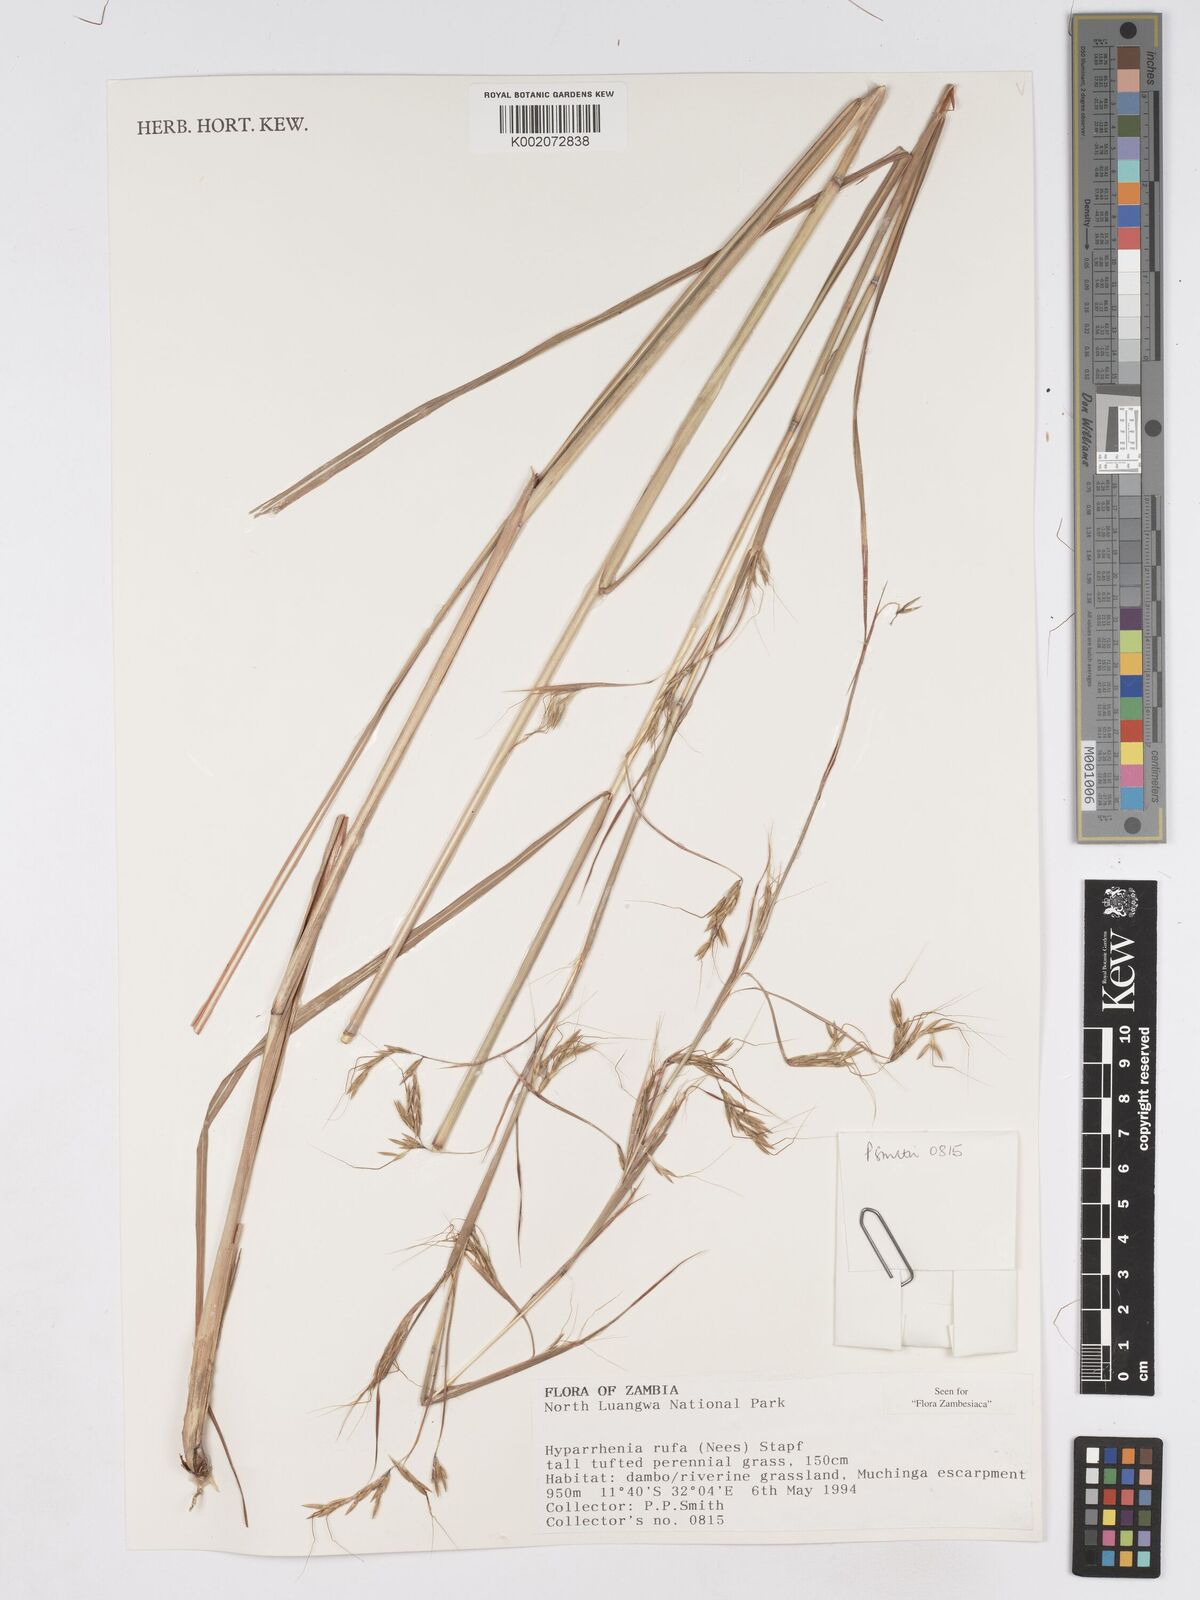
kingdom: Plantae
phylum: Tracheophyta
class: Liliopsida
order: Poales
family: Poaceae
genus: Hyparrhenia
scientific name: Hyparrhenia rufa
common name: Jaraguagrass
